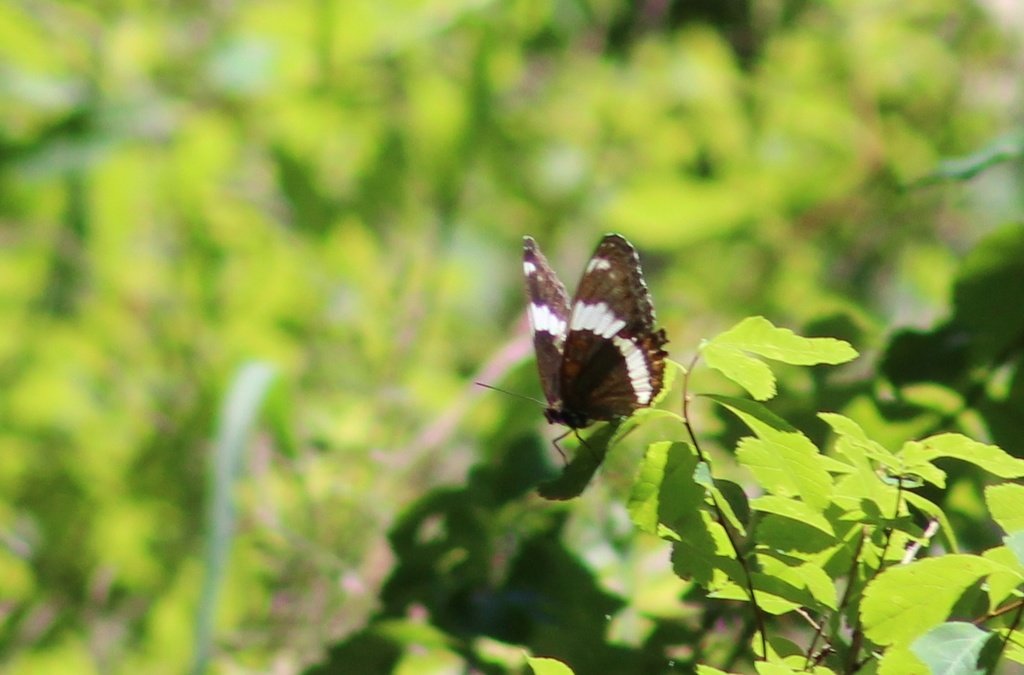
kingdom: Animalia
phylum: Arthropoda
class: Insecta
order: Lepidoptera
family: Nymphalidae
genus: Limenitis
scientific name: Limenitis arthemis
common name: Red-spotted Admiral
